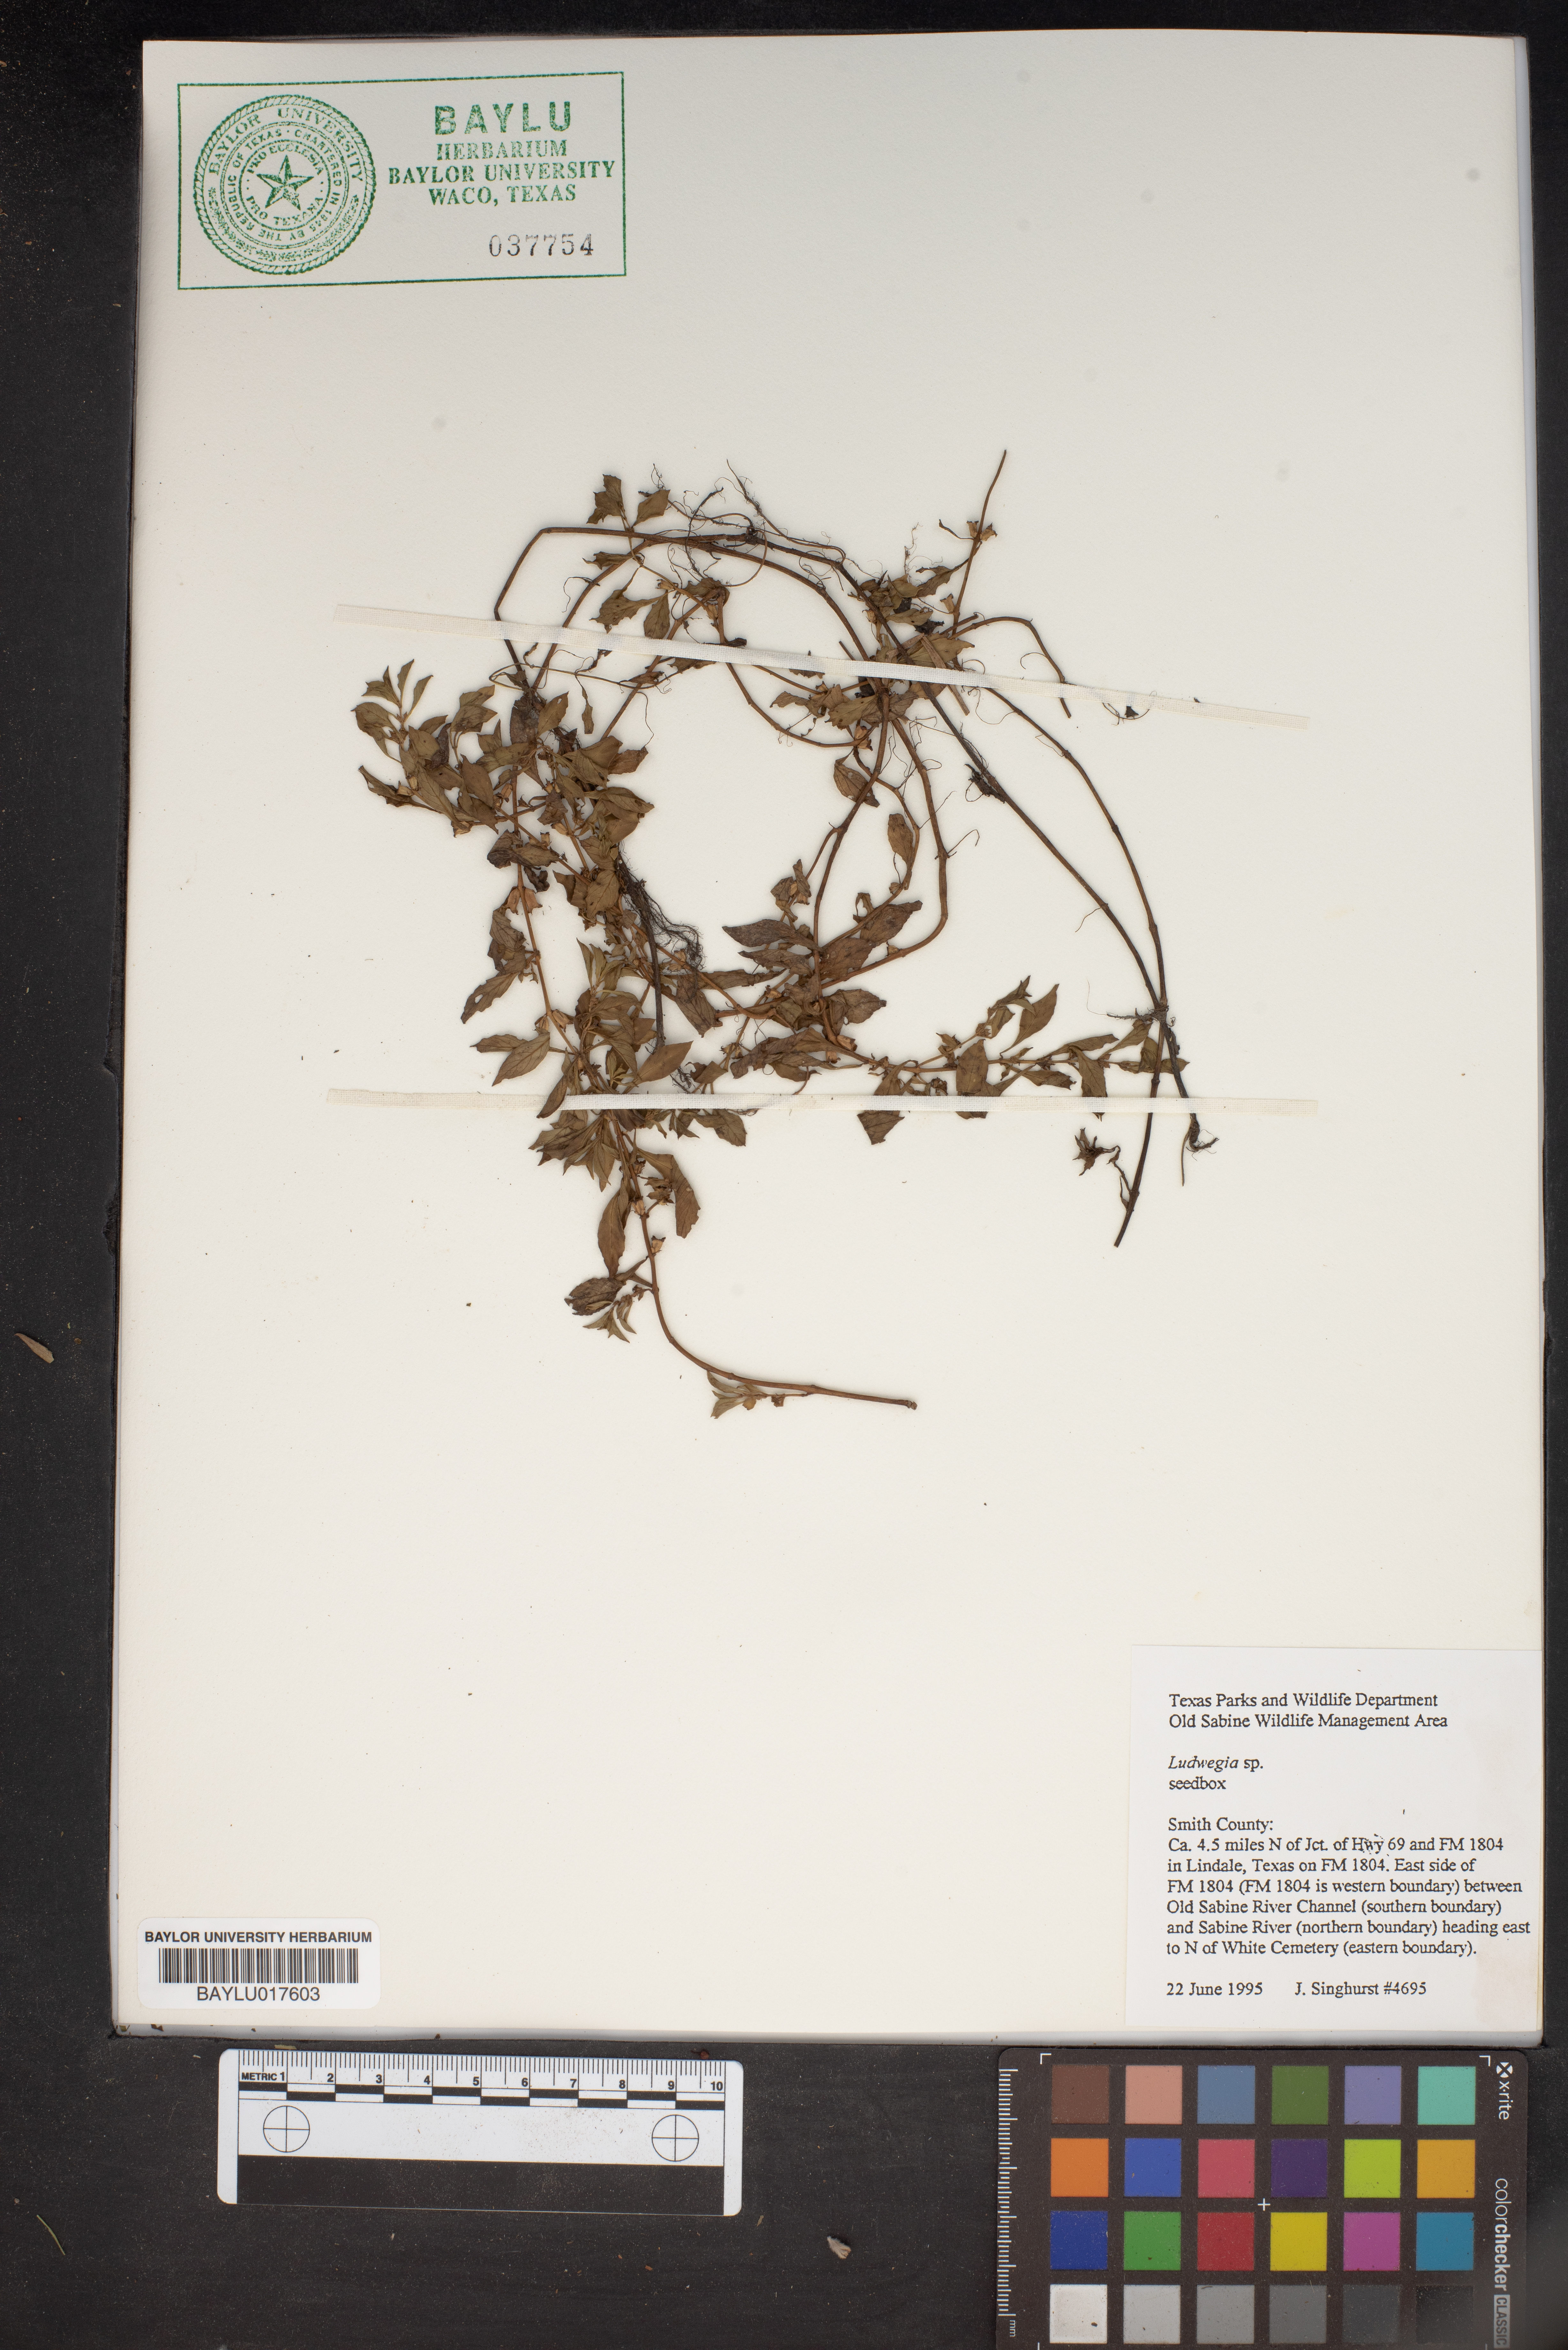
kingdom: Plantae
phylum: Tracheophyta
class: Magnoliopsida
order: Myrtales
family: Onagraceae
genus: Ludwigia
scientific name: Ludwigia
